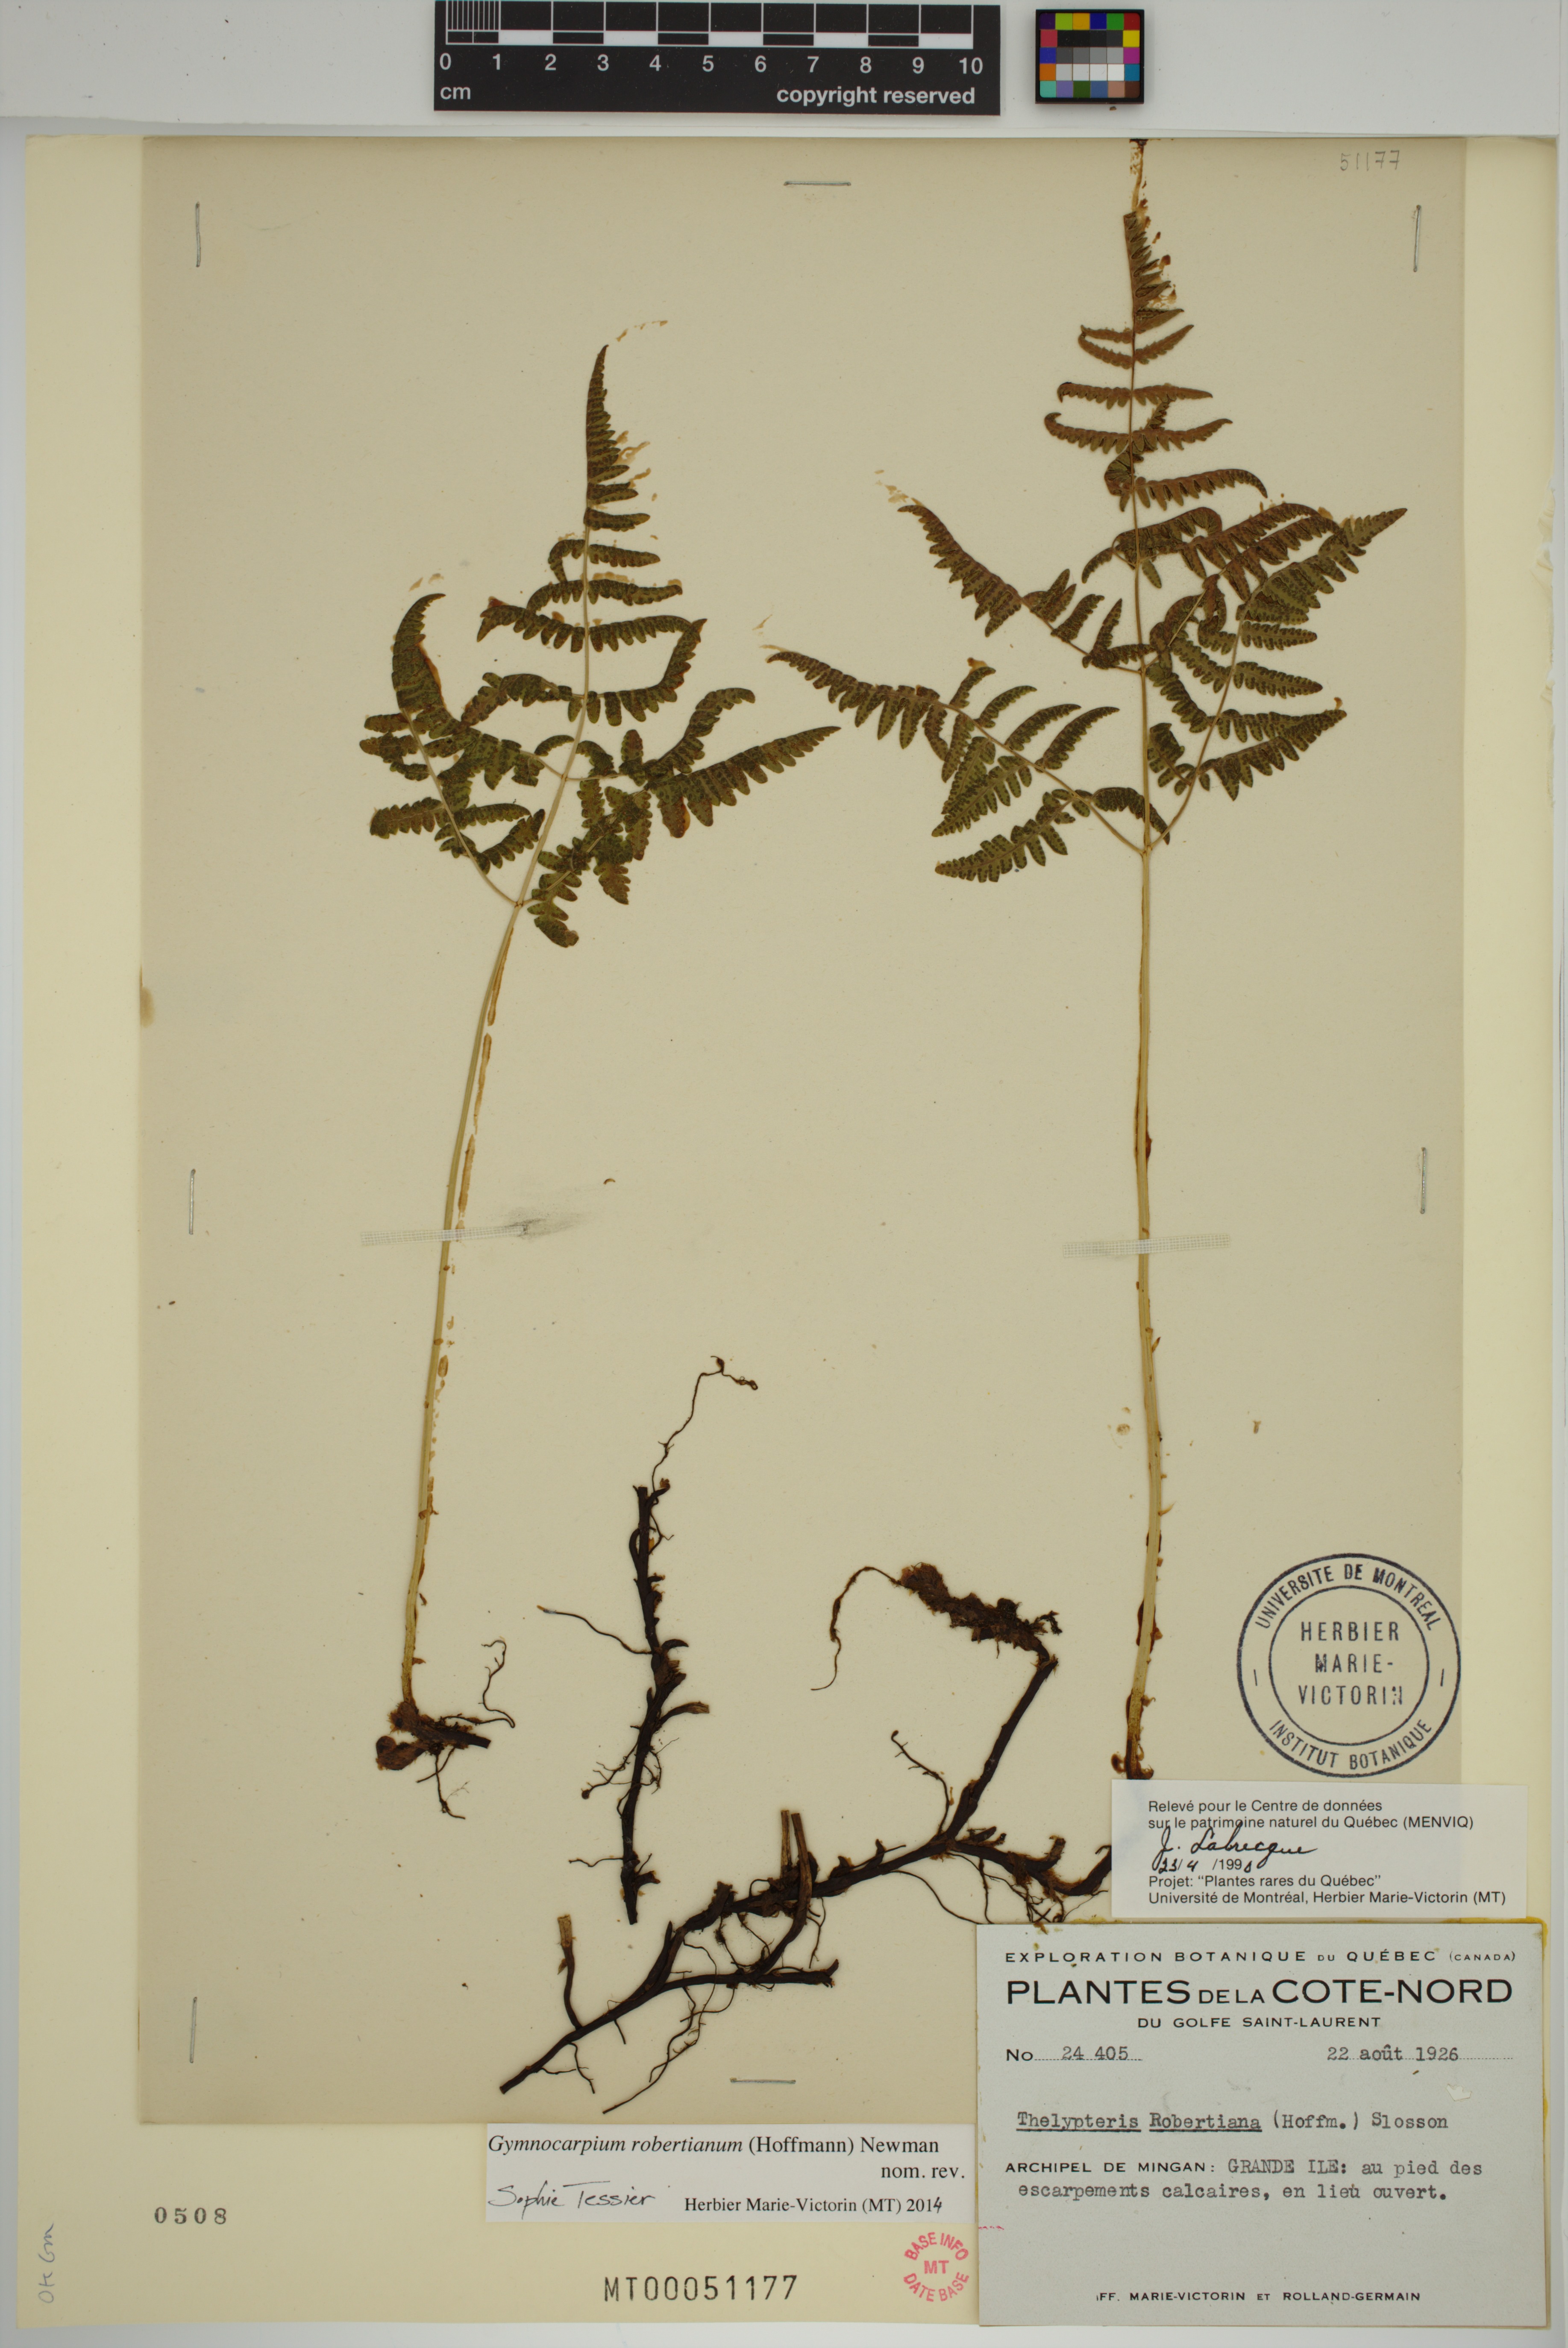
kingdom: Plantae
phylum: Tracheophyta
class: Polypodiopsida
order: Polypodiales
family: Cystopteridaceae
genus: Gymnocarpium
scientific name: Gymnocarpium robertianum
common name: Limestone fern
